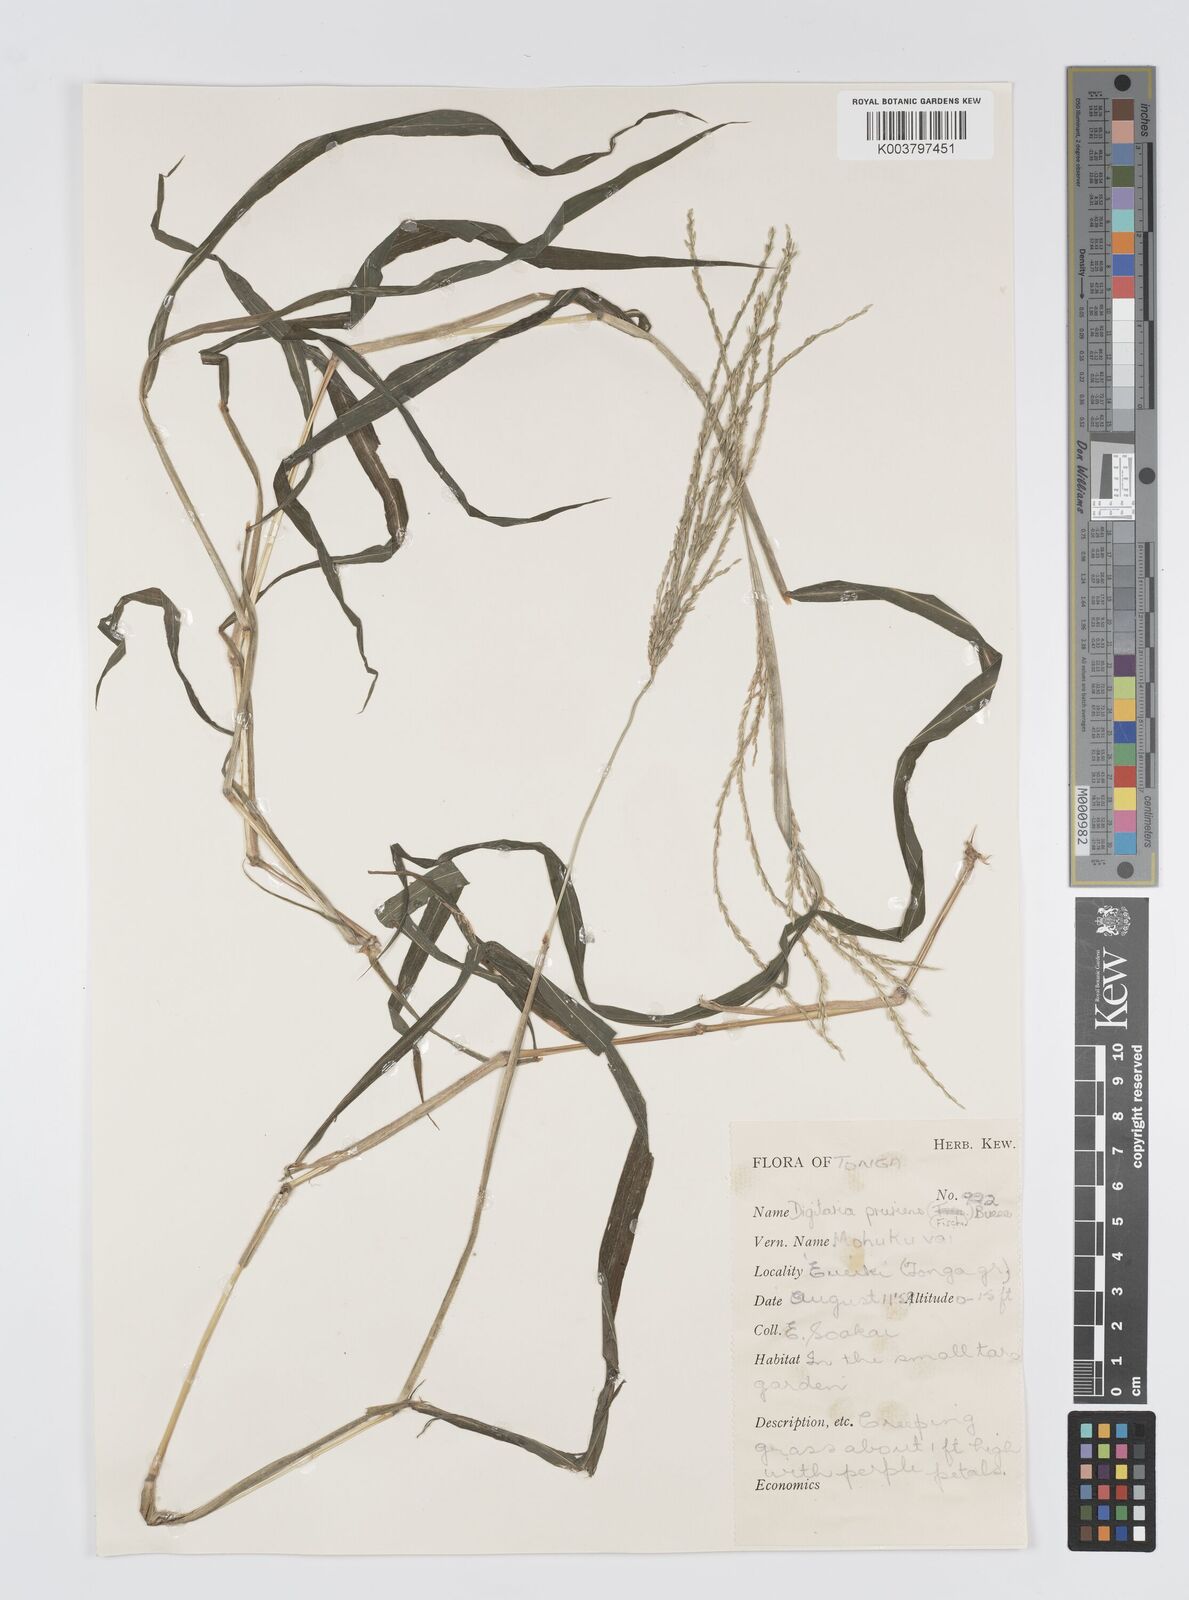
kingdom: Plantae
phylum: Tracheophyta
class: Liliopsida
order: Poales
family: Poaceae
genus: Digitaria
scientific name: Digitaria setigera
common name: East indian crabgrass
